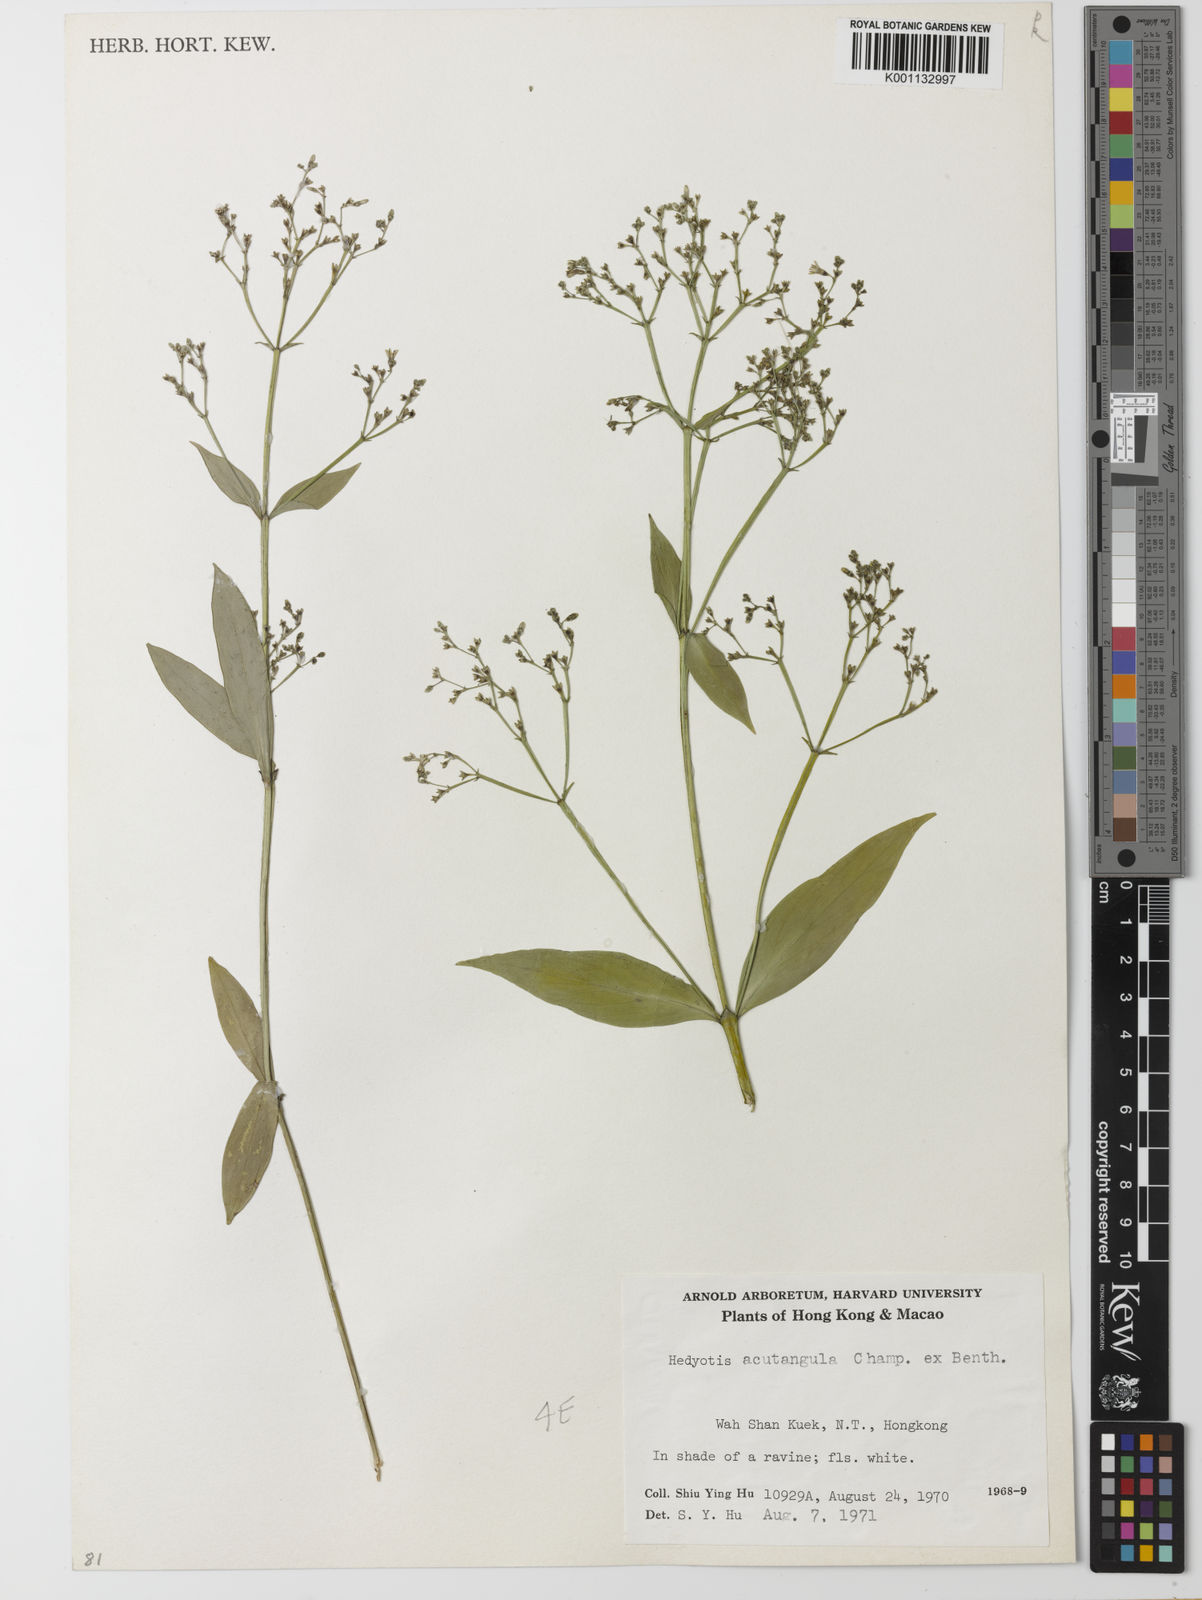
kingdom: Plantae
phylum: Tracheophyta
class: Magnoliopsida
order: Gentianales
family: Rubiaceae
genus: Hedyotis
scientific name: Hedyotis acutangula
